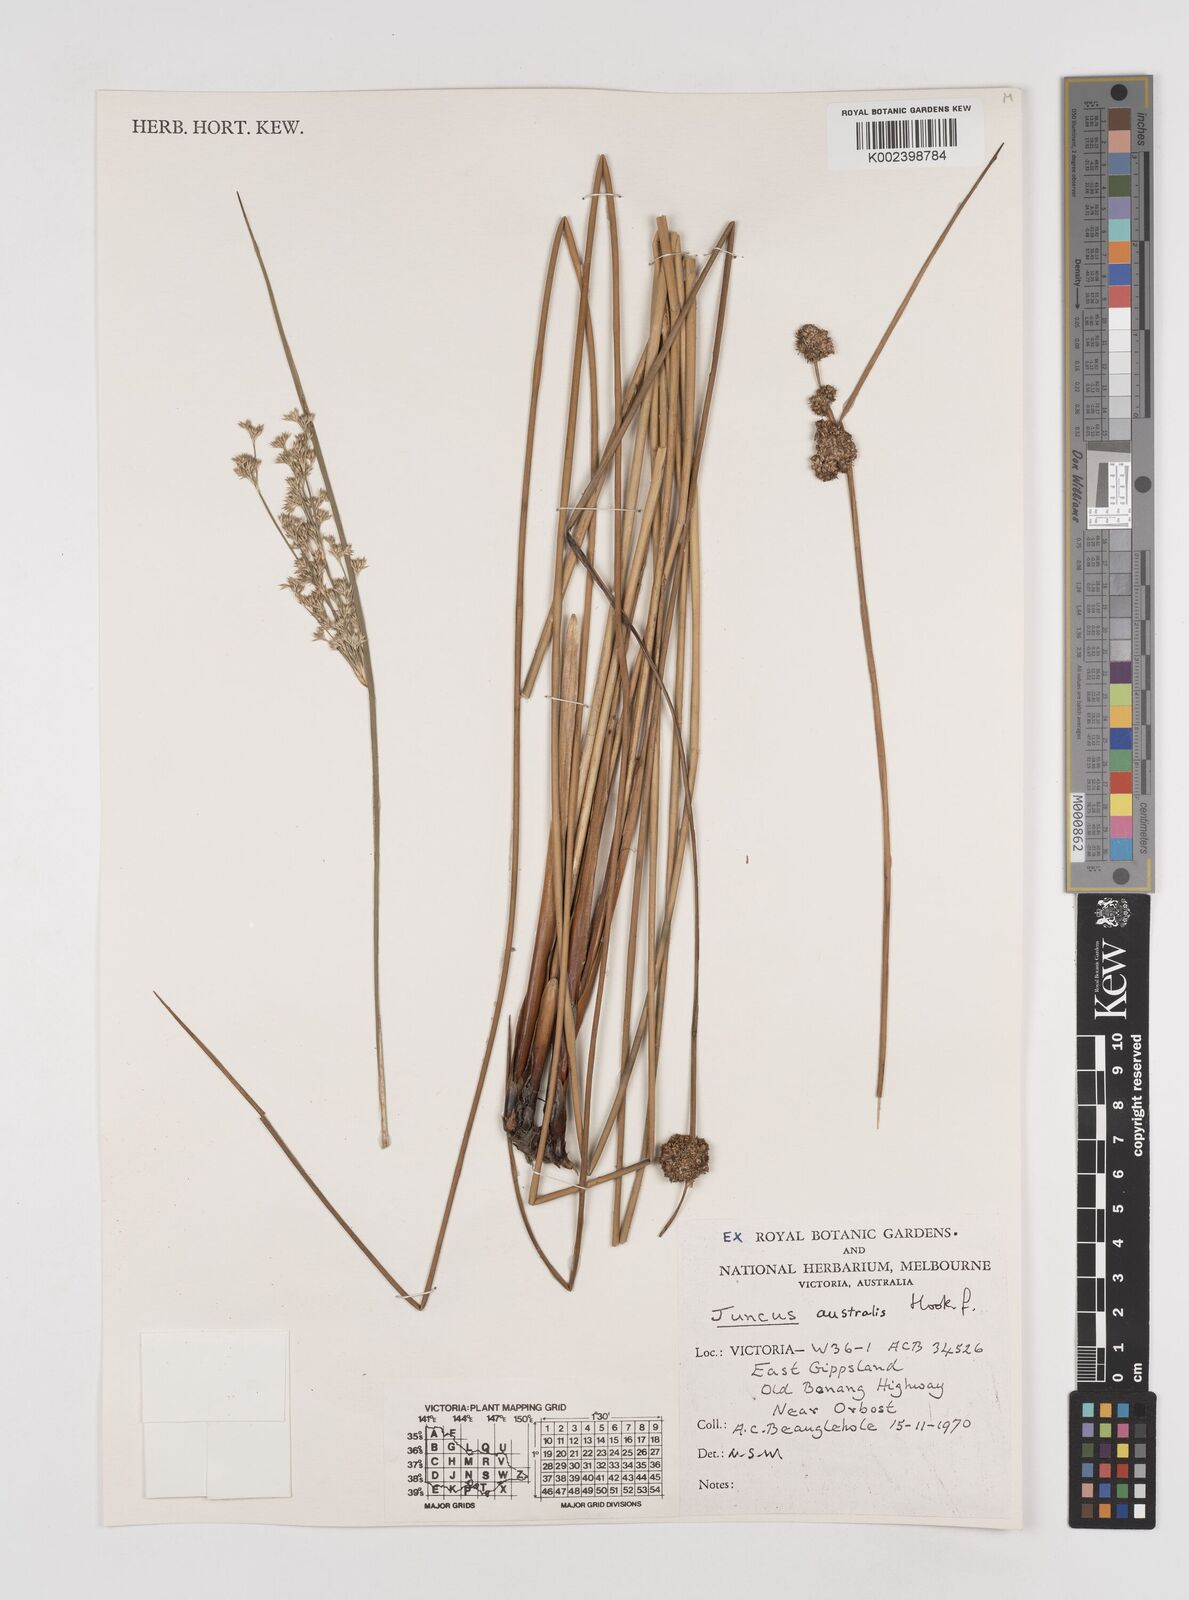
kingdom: Plantae
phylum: Tracheophyta
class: Liliopsida
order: Poales
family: Juncaceae
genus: Juncus
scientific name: Juncus australis
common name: Austral rush
